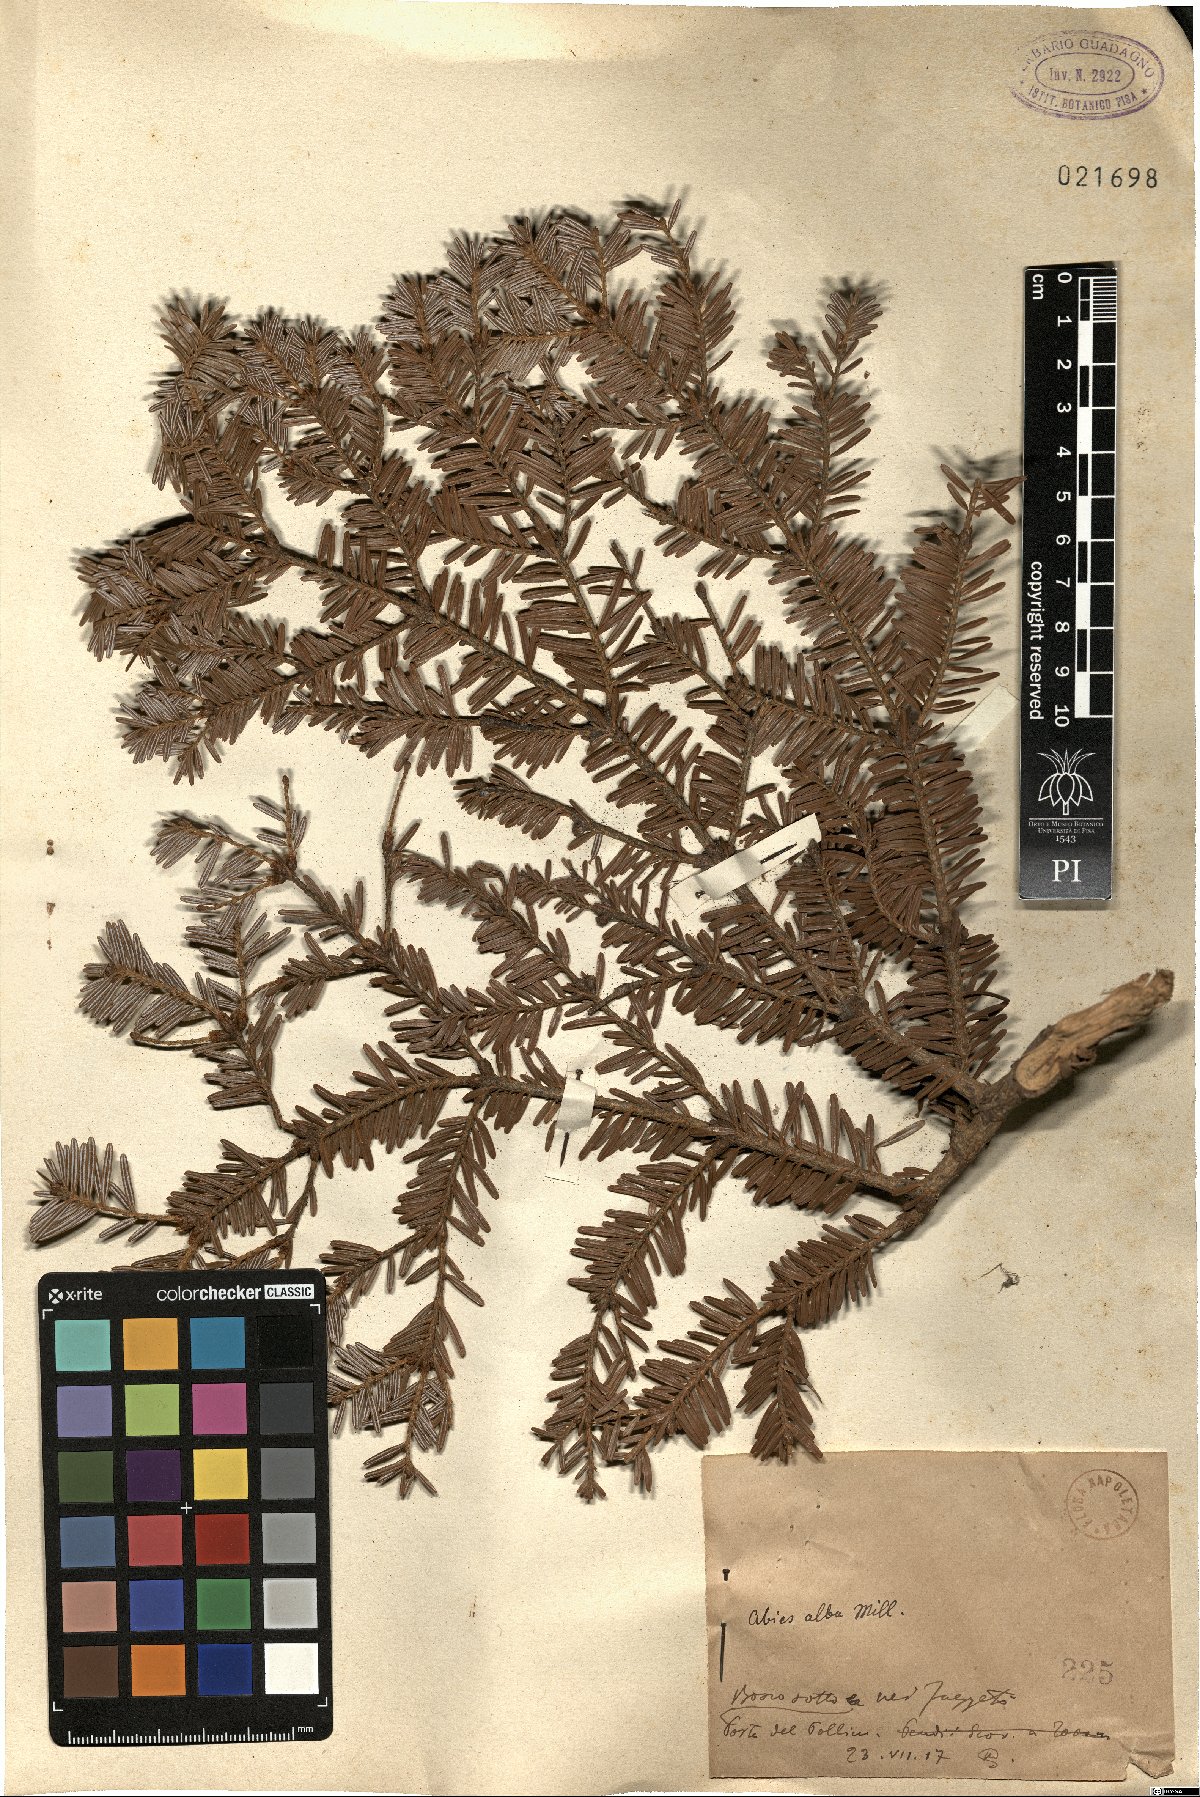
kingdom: Plantae
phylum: Tracheophyta
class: Pinopsida
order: Pinales
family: Pinaceae
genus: Abies
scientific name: Abies alba
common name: Silver fir
